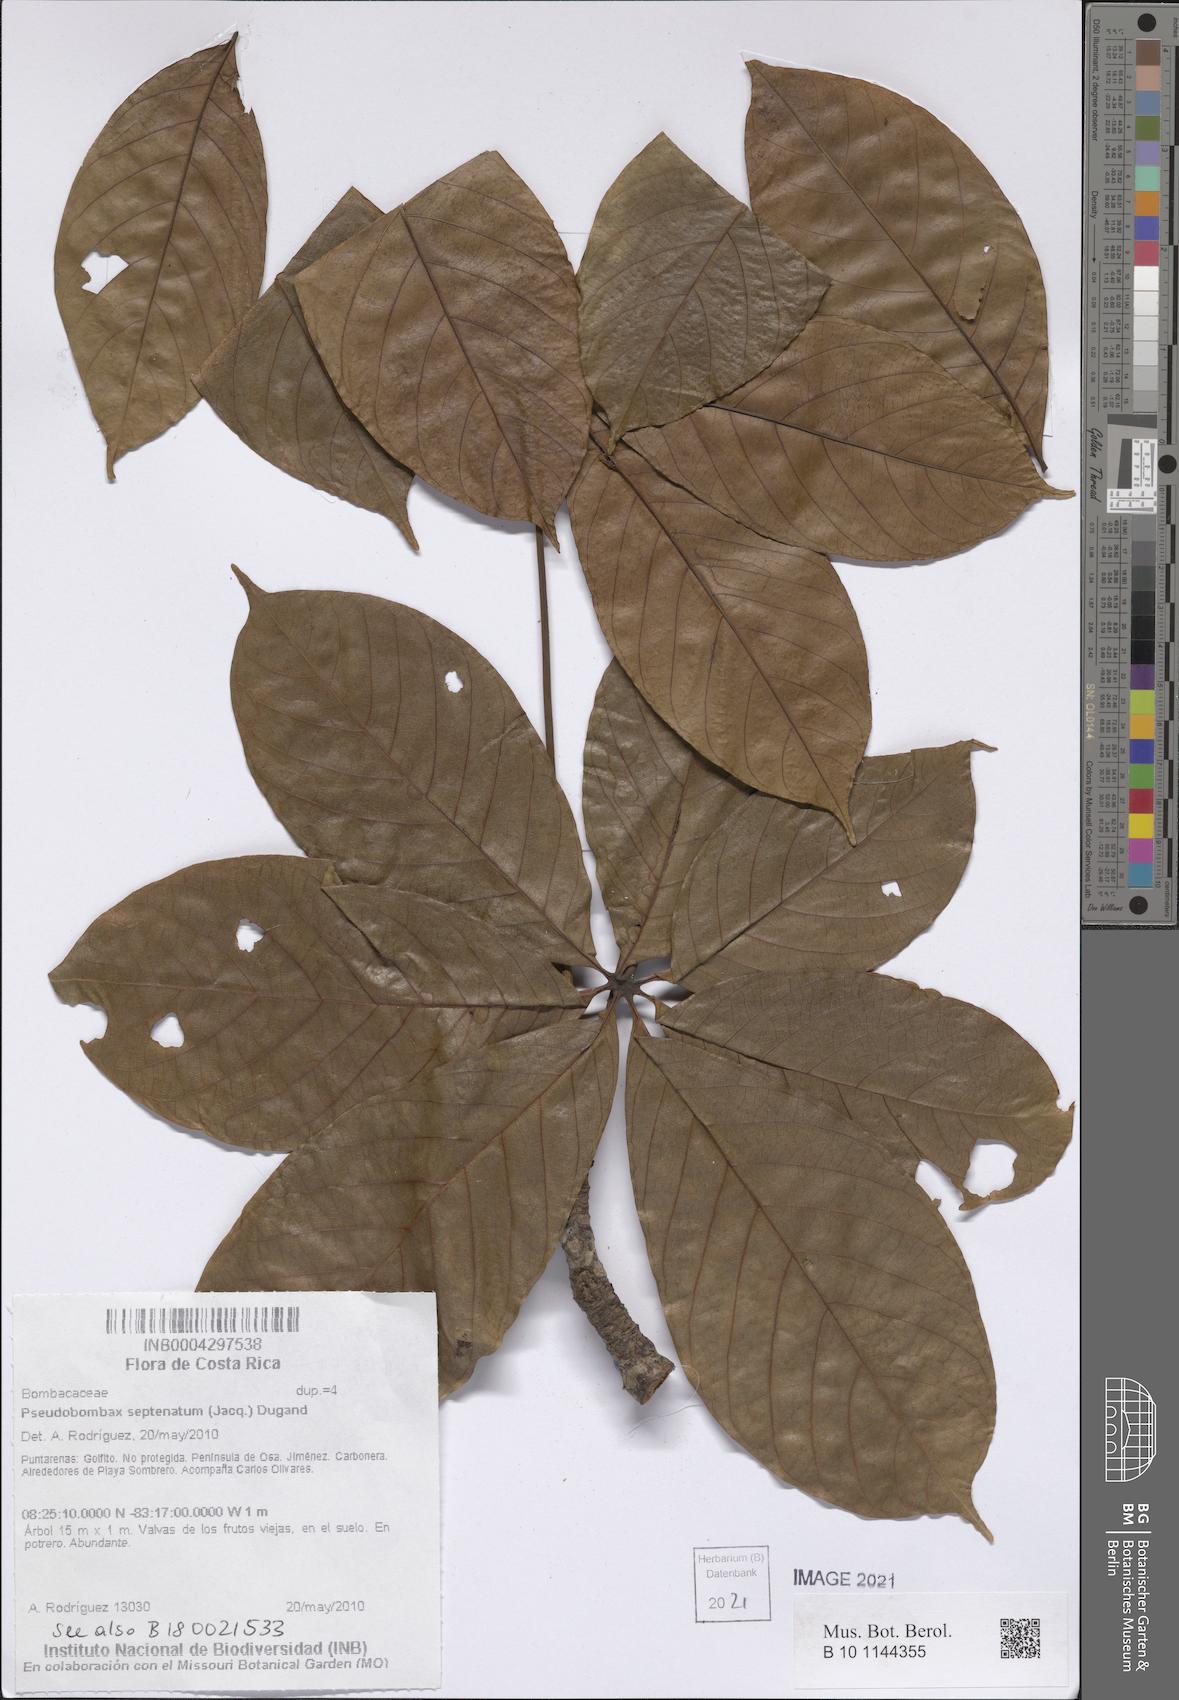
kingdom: Plantae
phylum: Tracheophyta
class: Magnoliopsida
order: Malvales
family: Malvaceae
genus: Pseudobombax
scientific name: Pseudobombax septenatum
